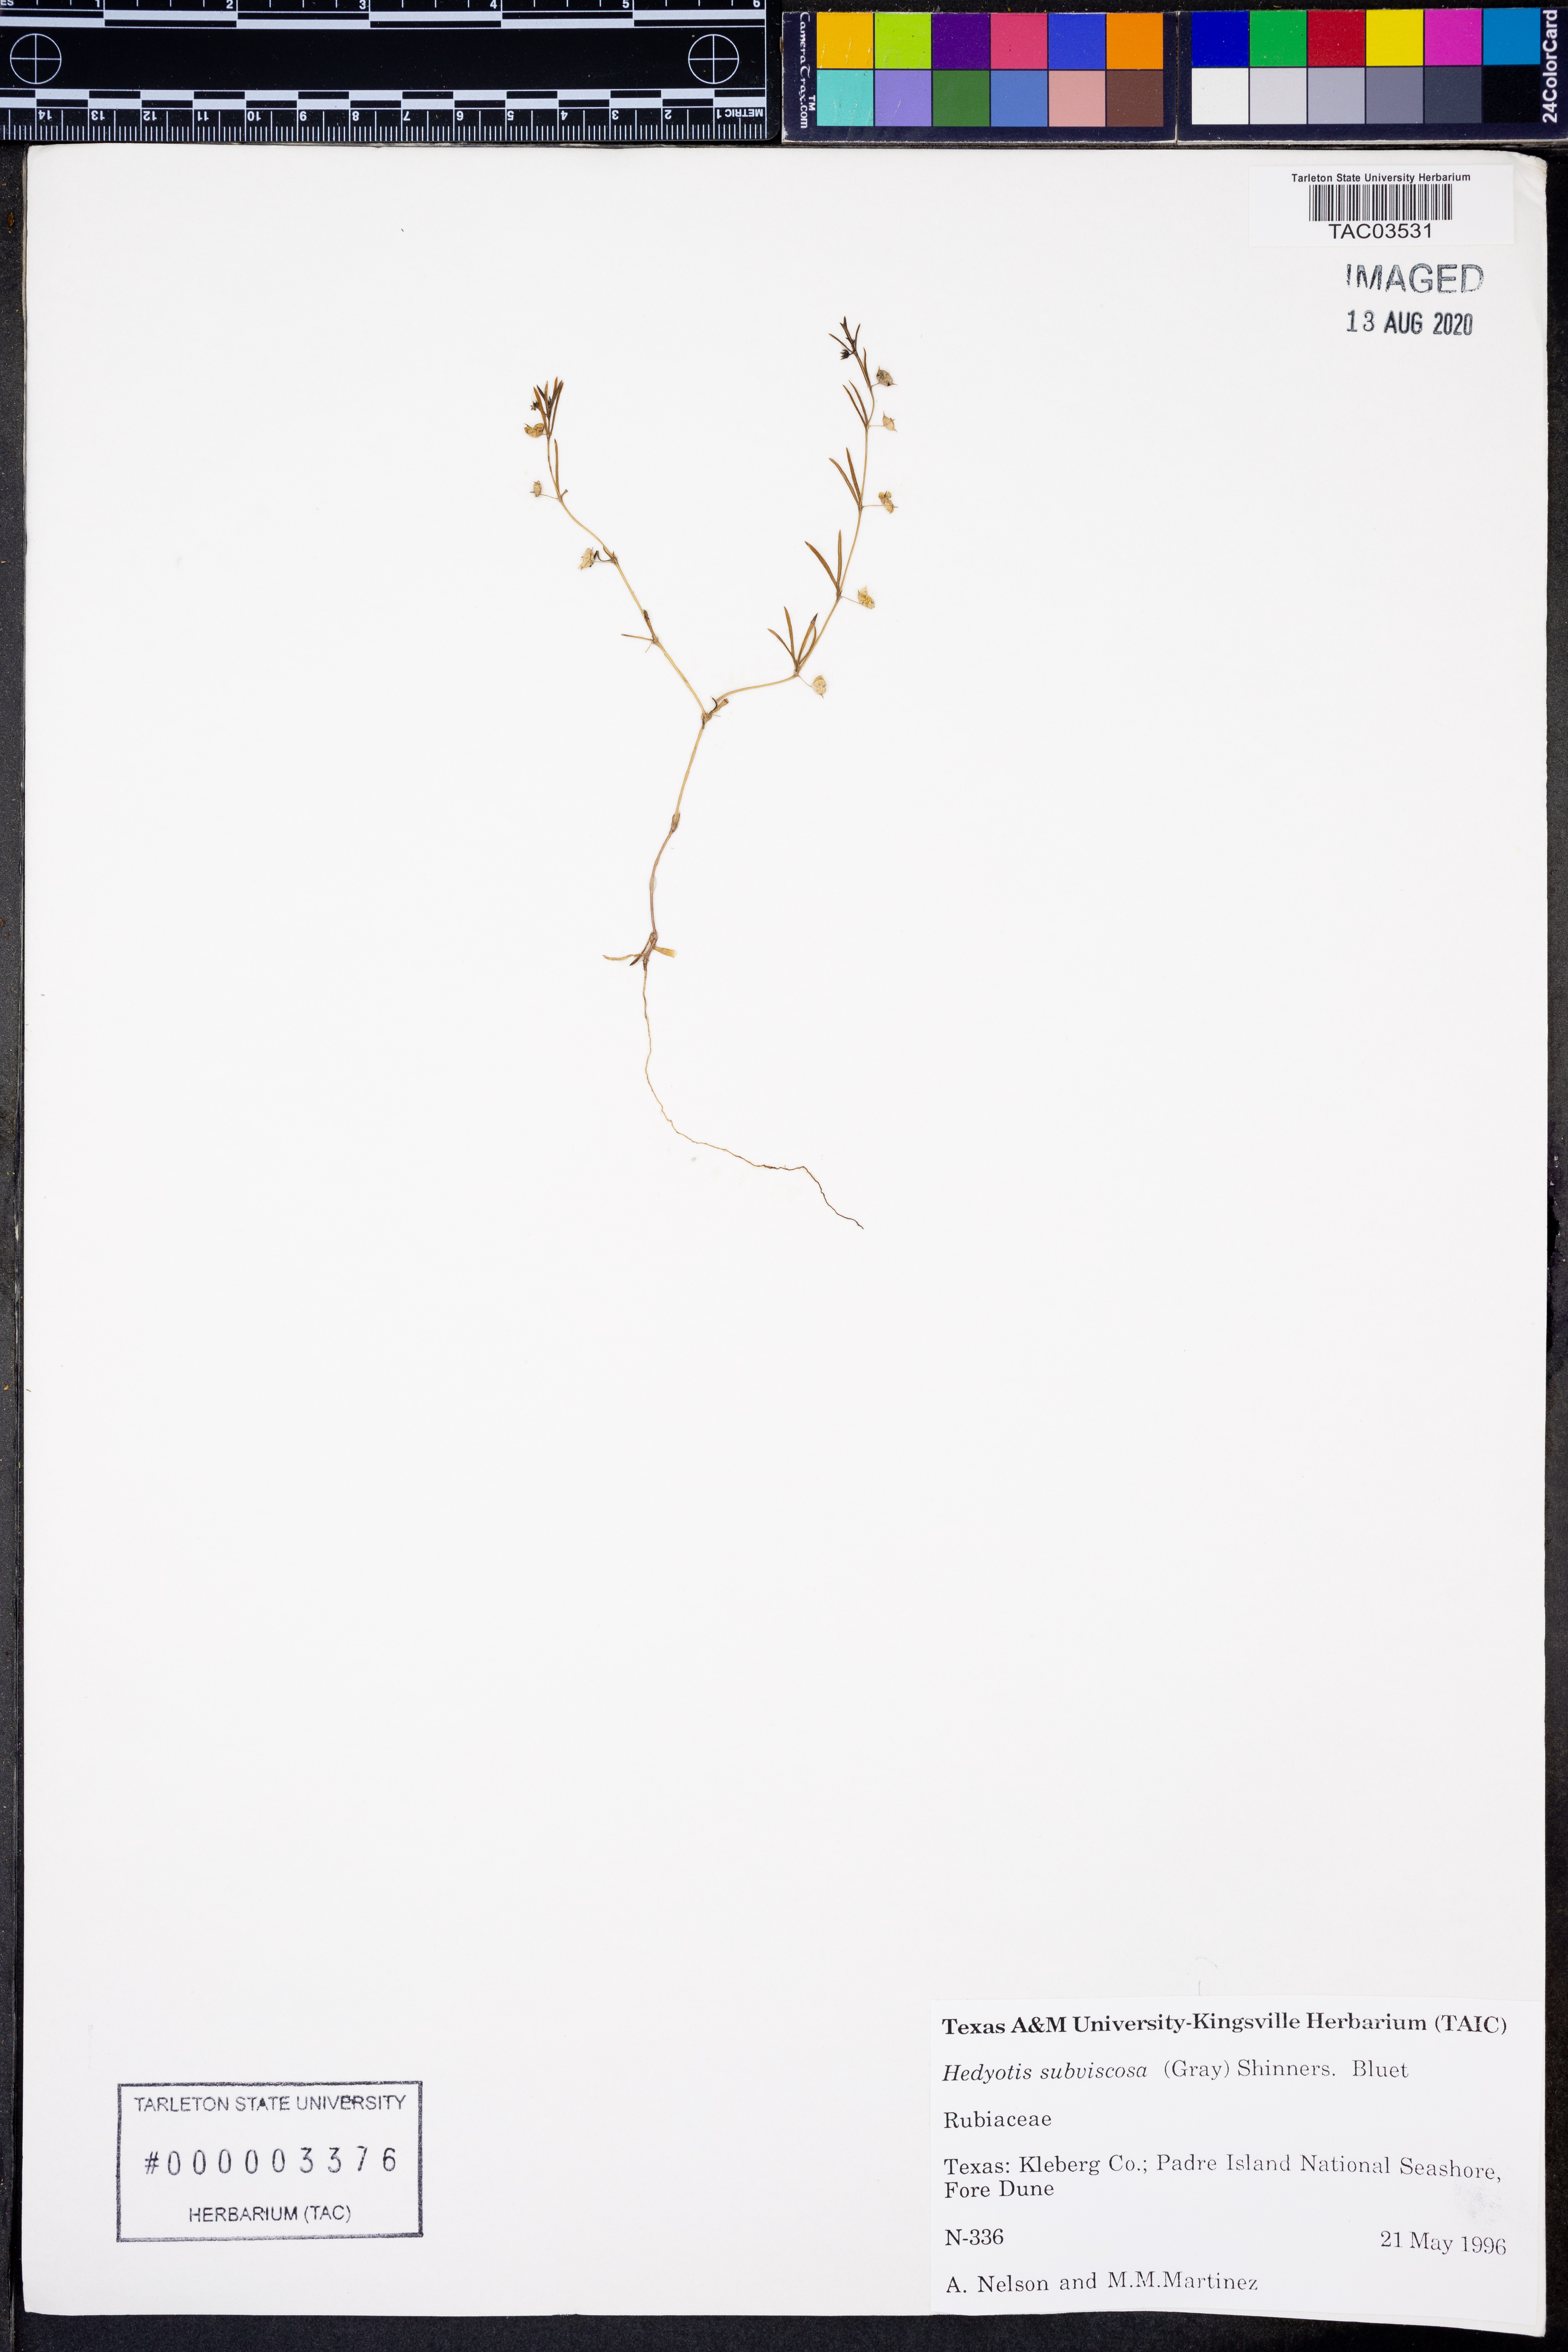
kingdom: Plantae
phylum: Tracheophyta
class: Magnoliopsida
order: Gentianales
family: Rubiaceae
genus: Houstonia
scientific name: Houstonia subviscosa
